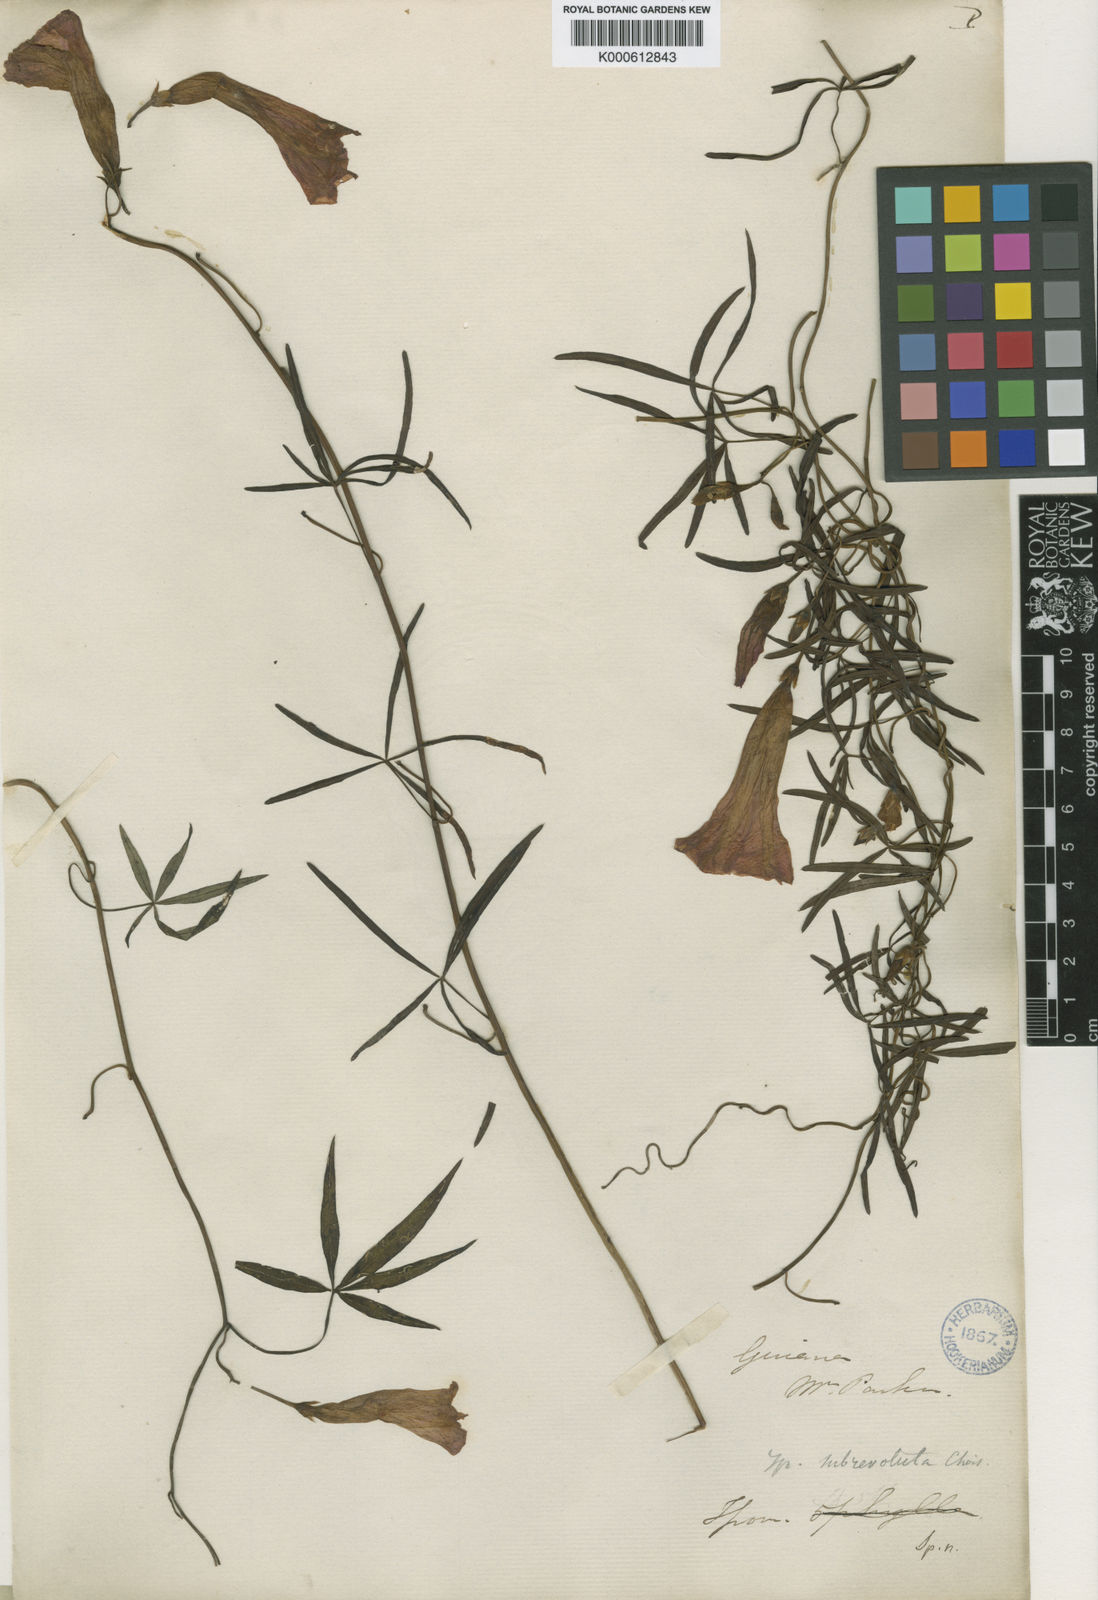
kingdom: Plantae
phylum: Tracheophyta
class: Magnoliopsida
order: Solanales
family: Convolvulaceae
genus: Ipomoea
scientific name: Ipomoea subrevoluta
